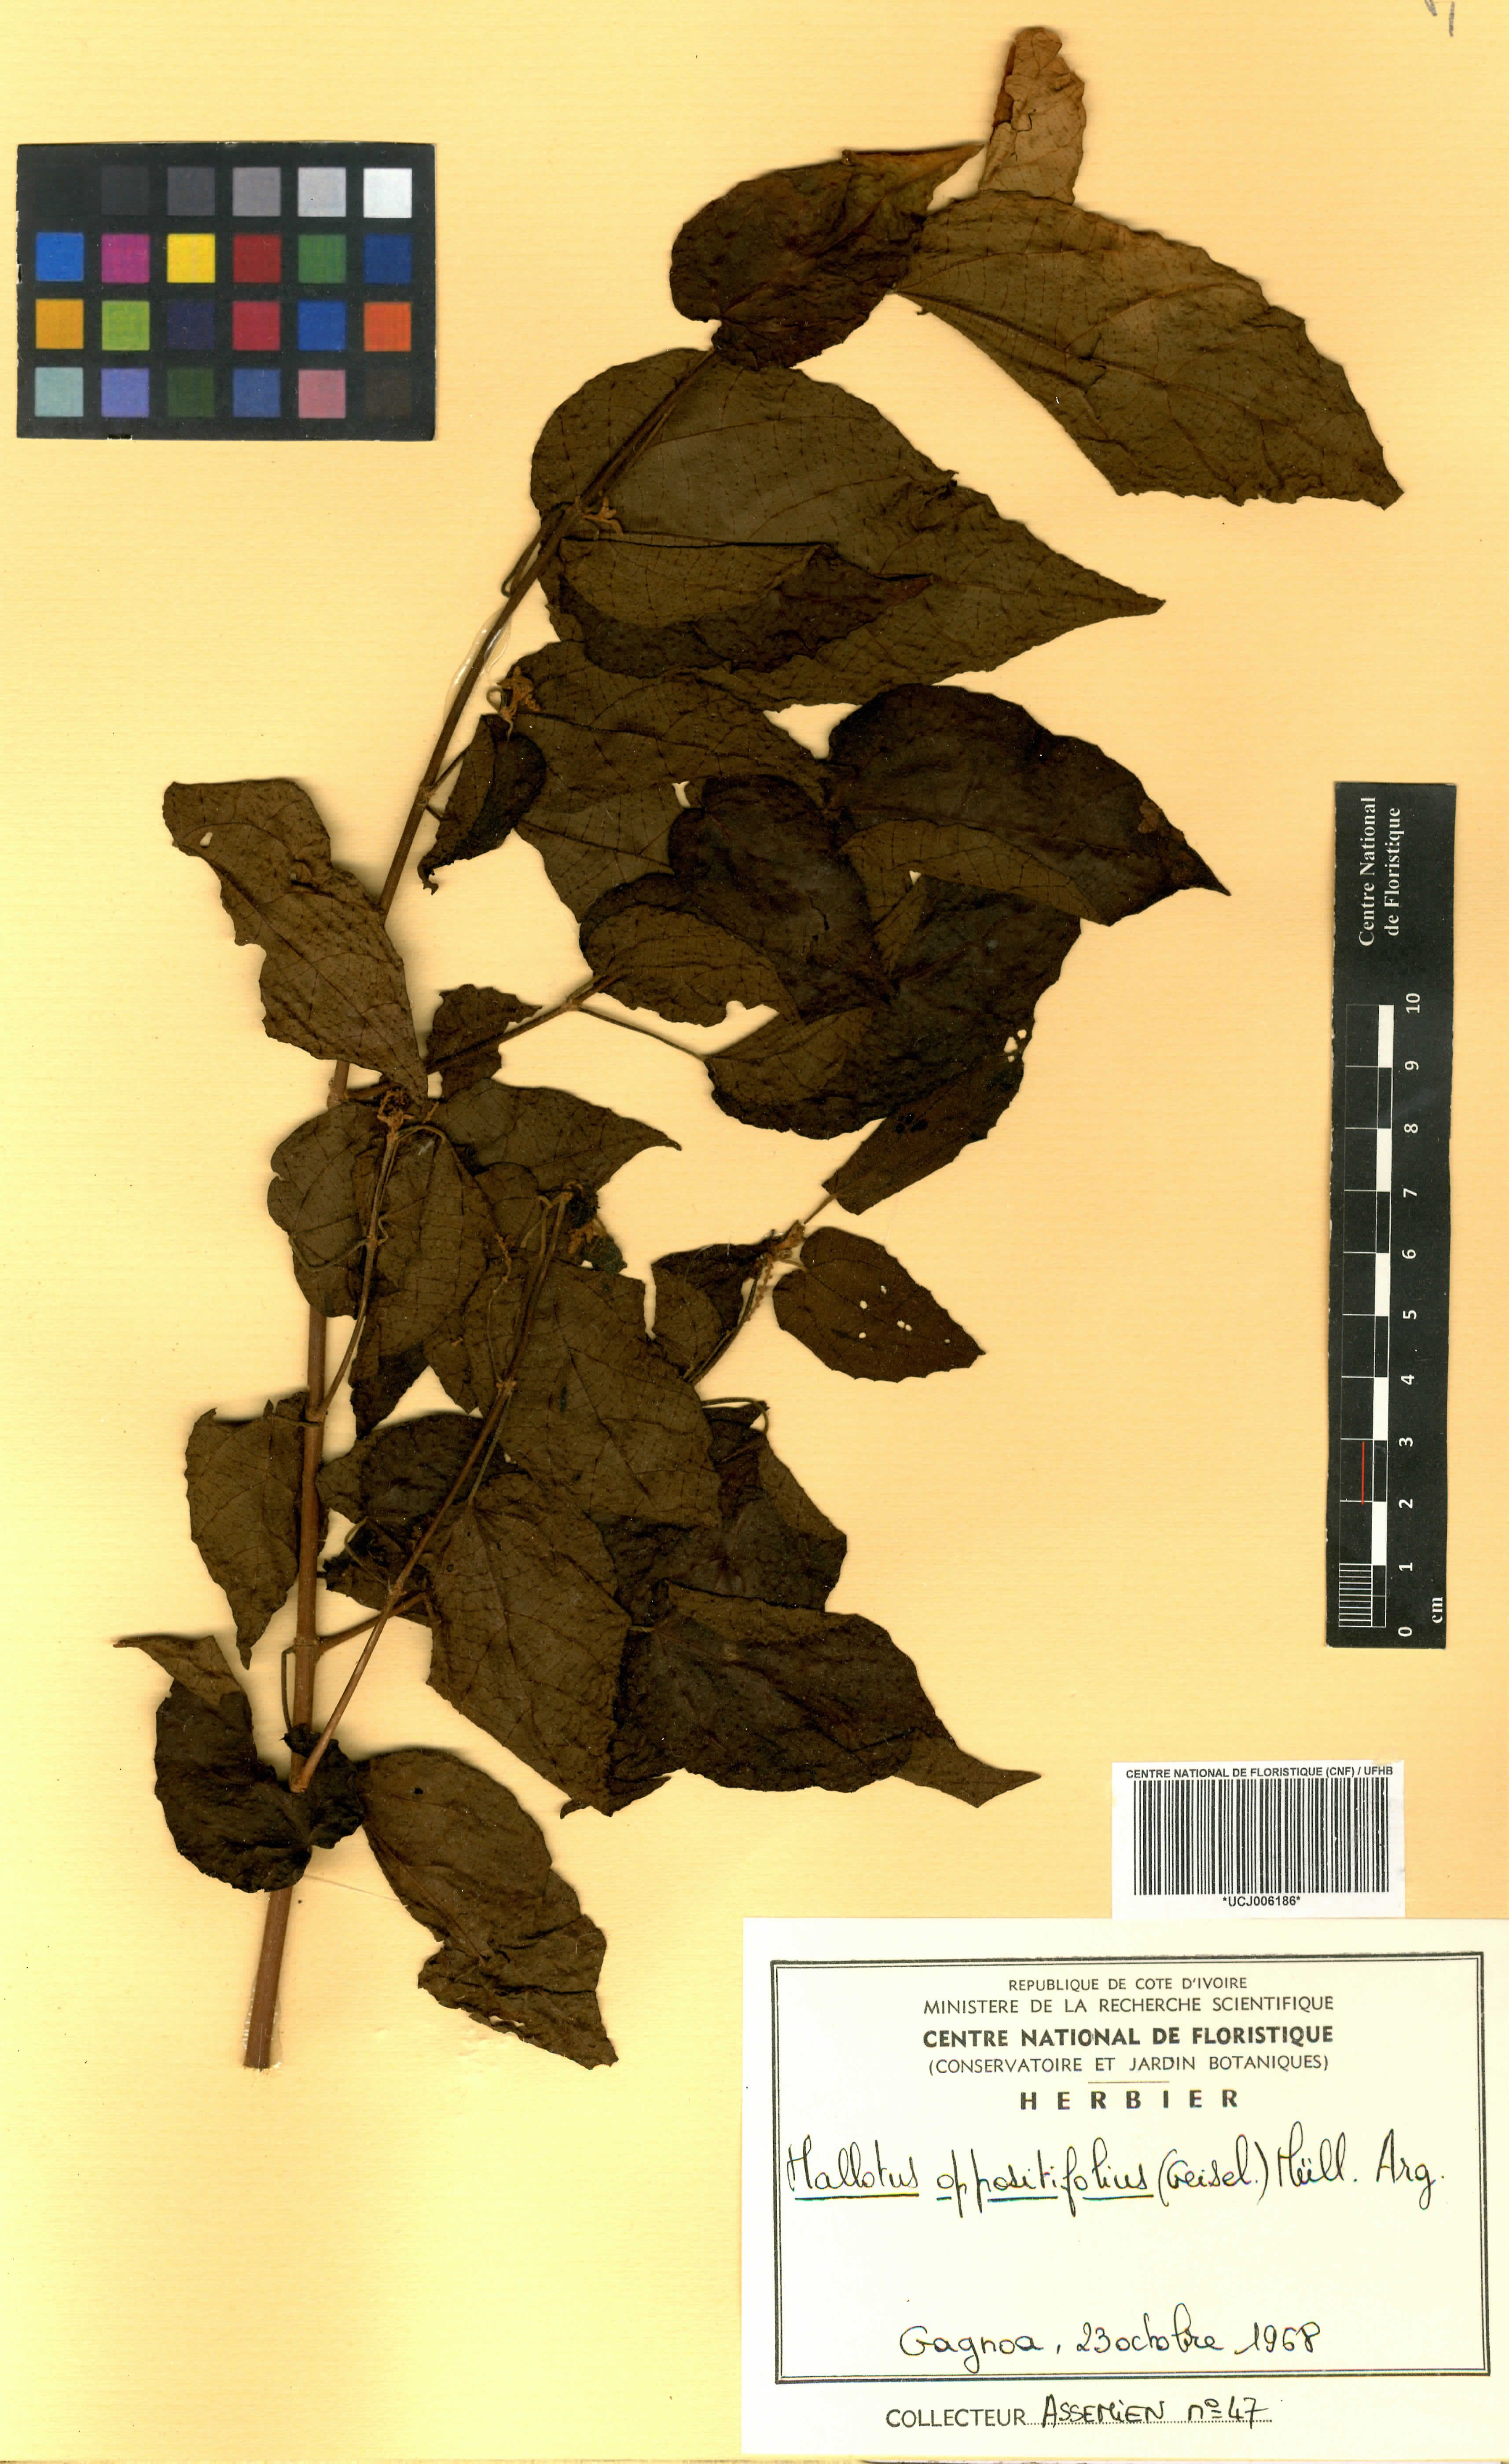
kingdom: Plantae
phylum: Tracheophyta
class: Magnoliopsida
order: Malpighiales
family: Euphorbiaceae
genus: Mallotus
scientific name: Mallotus oppositifolius
